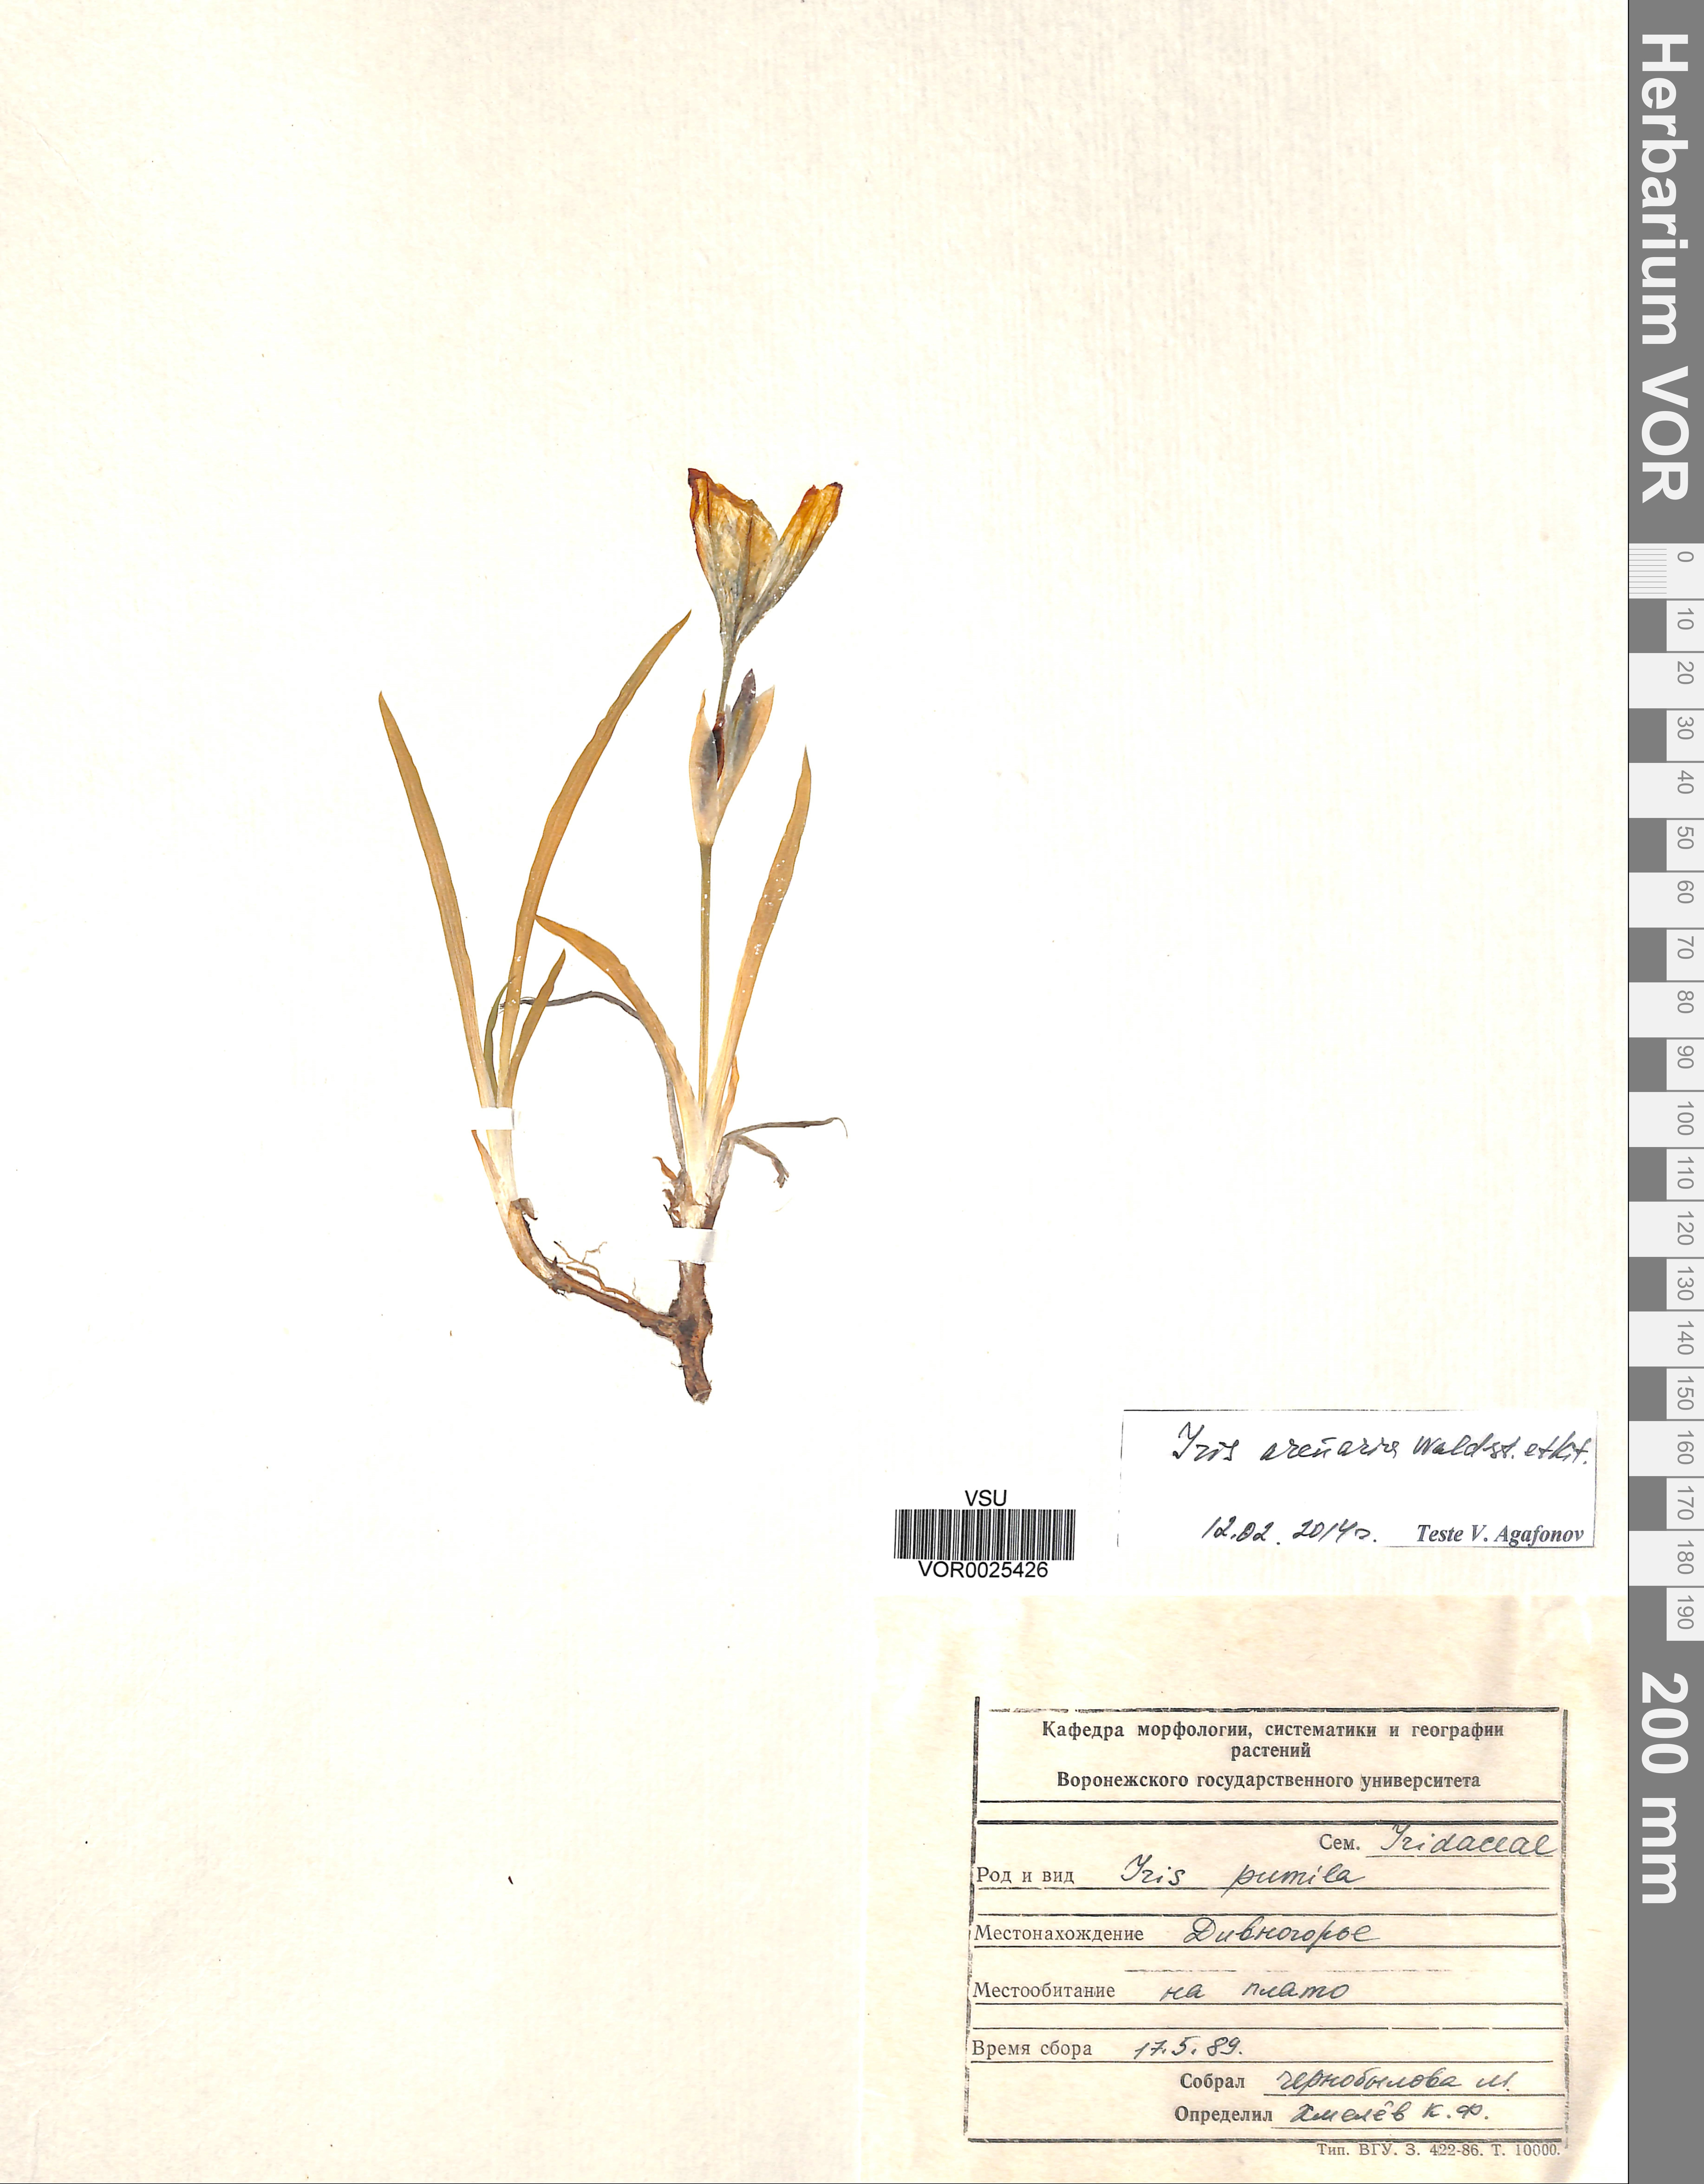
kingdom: Plantae
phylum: Tracheophyta
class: Liliopsida
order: Asparagales
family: Iridaceae
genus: Iris
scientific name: Iris arenaria
